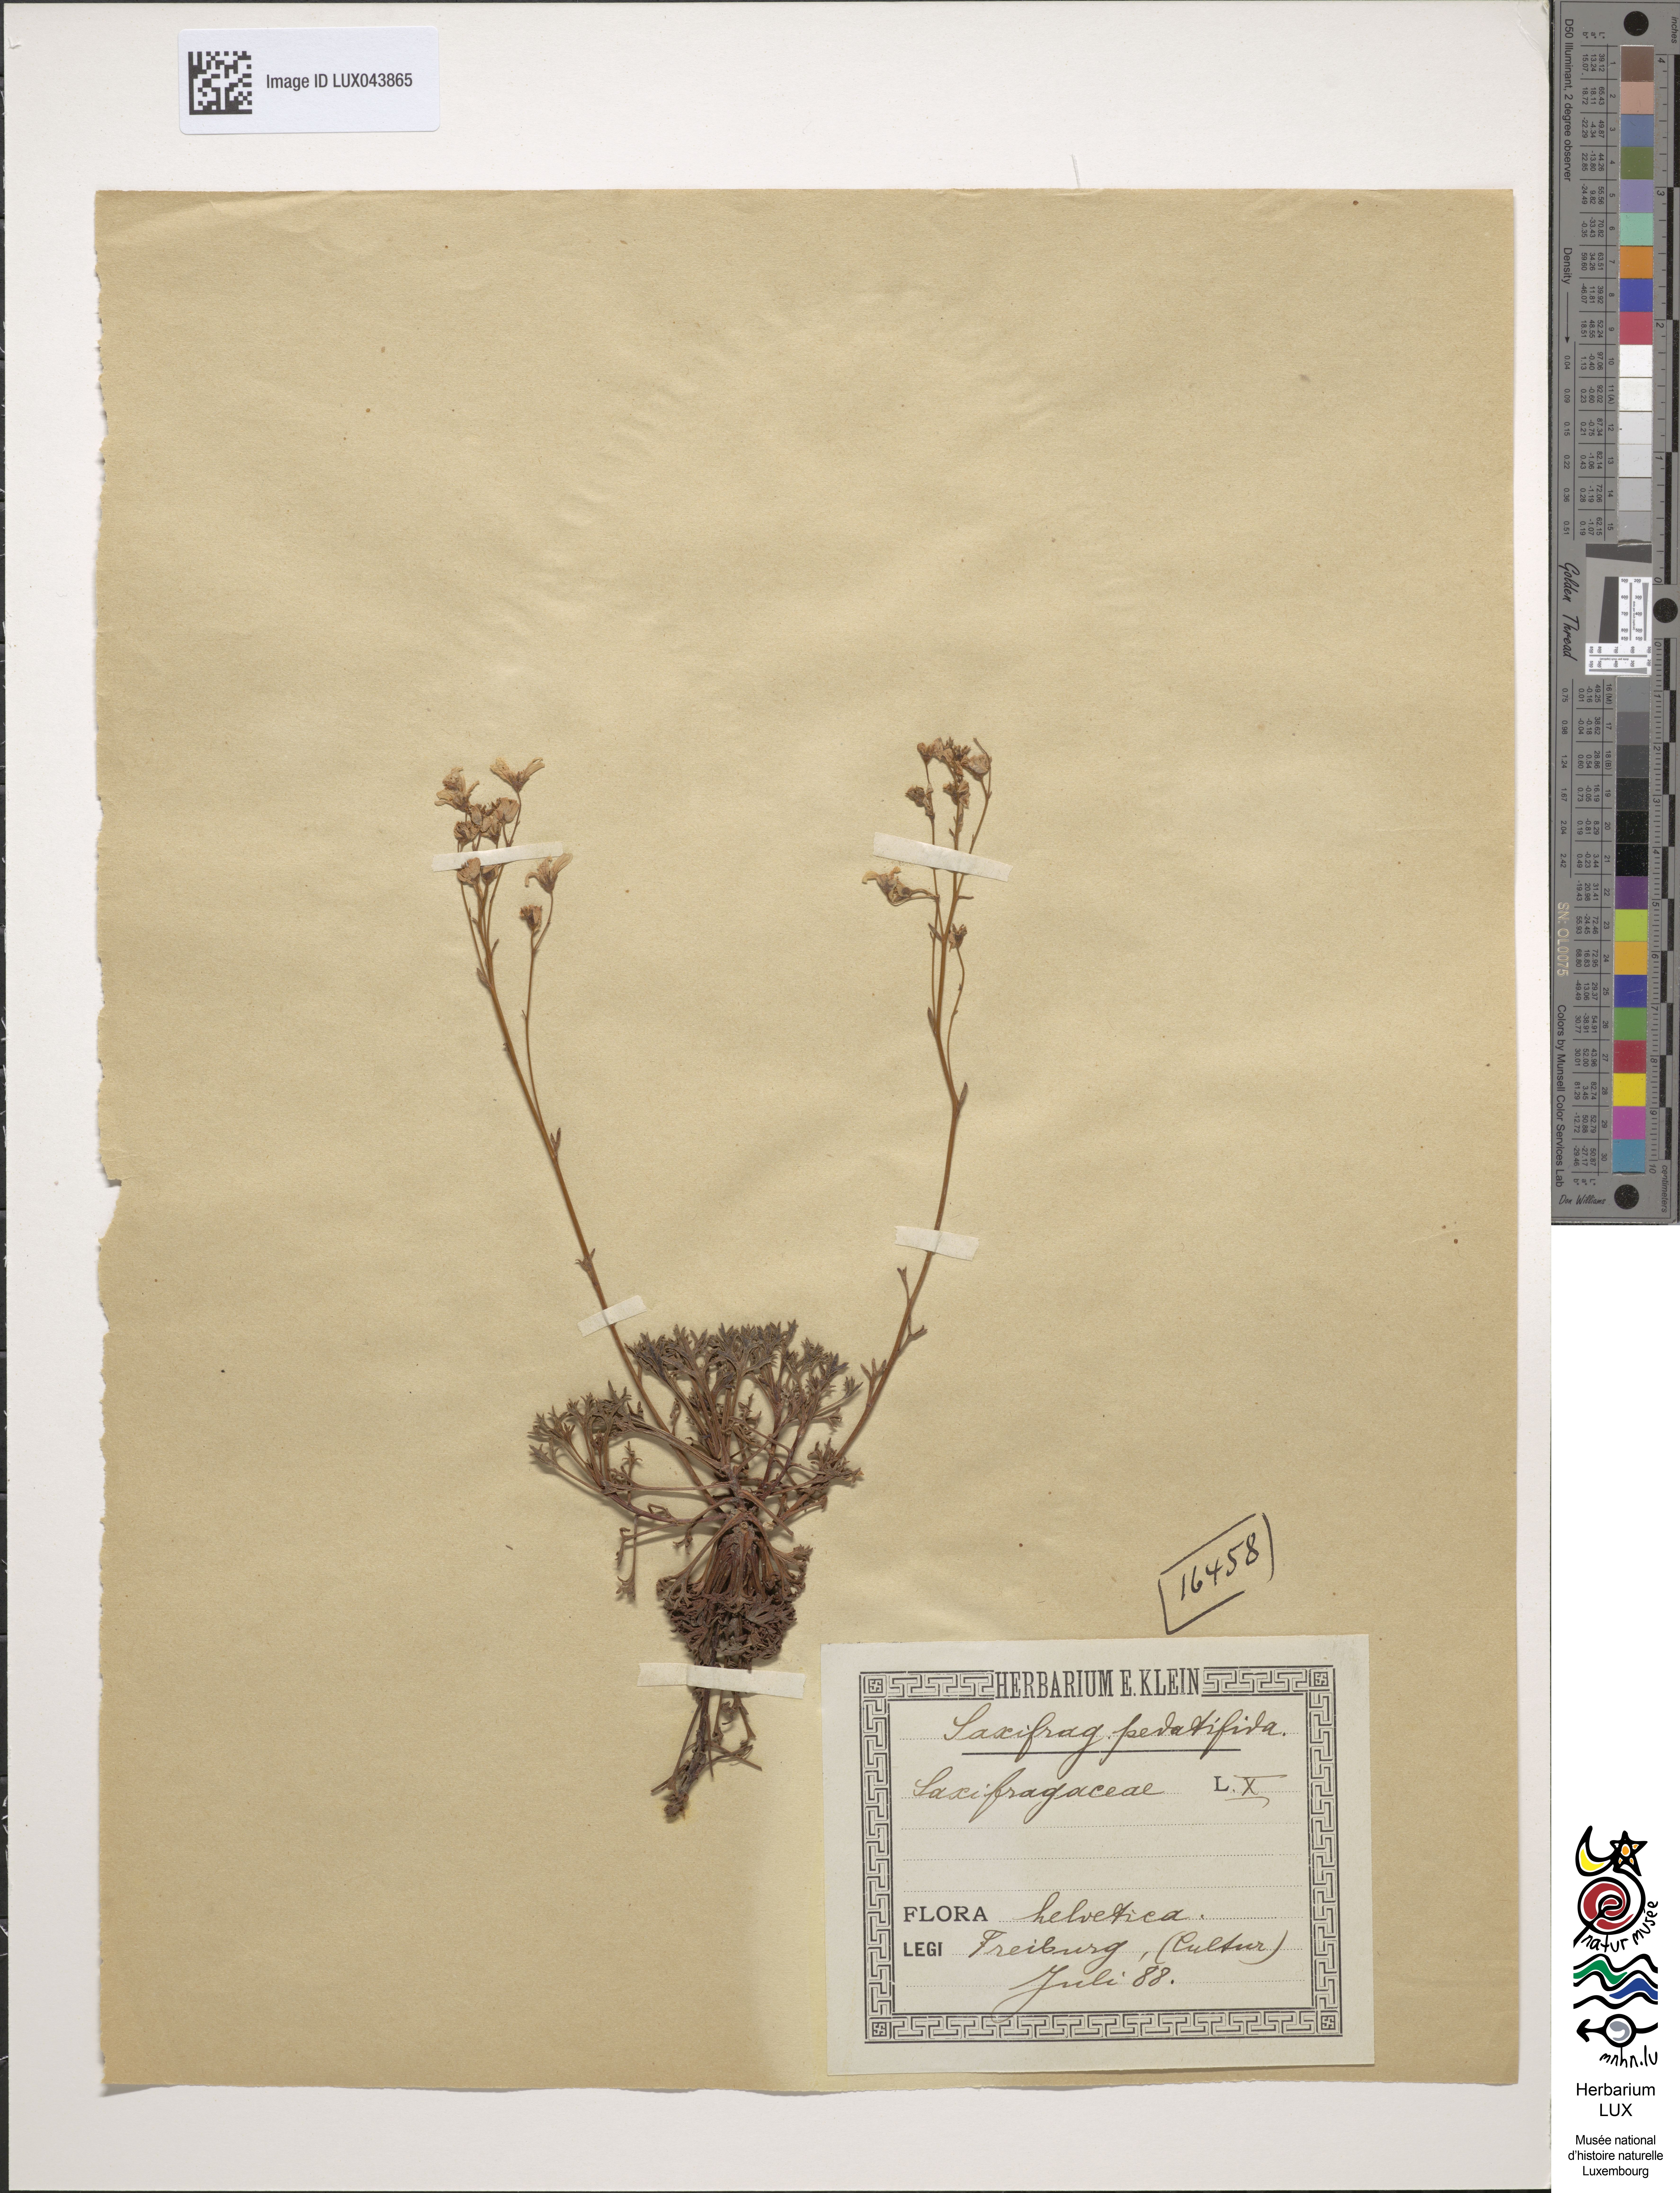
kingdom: Plantae
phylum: Tracheophyta
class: Magnoliopsida
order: Saxifragales
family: Saxifragaceae
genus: Saxifraga
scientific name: Saxifraga pedemontana
